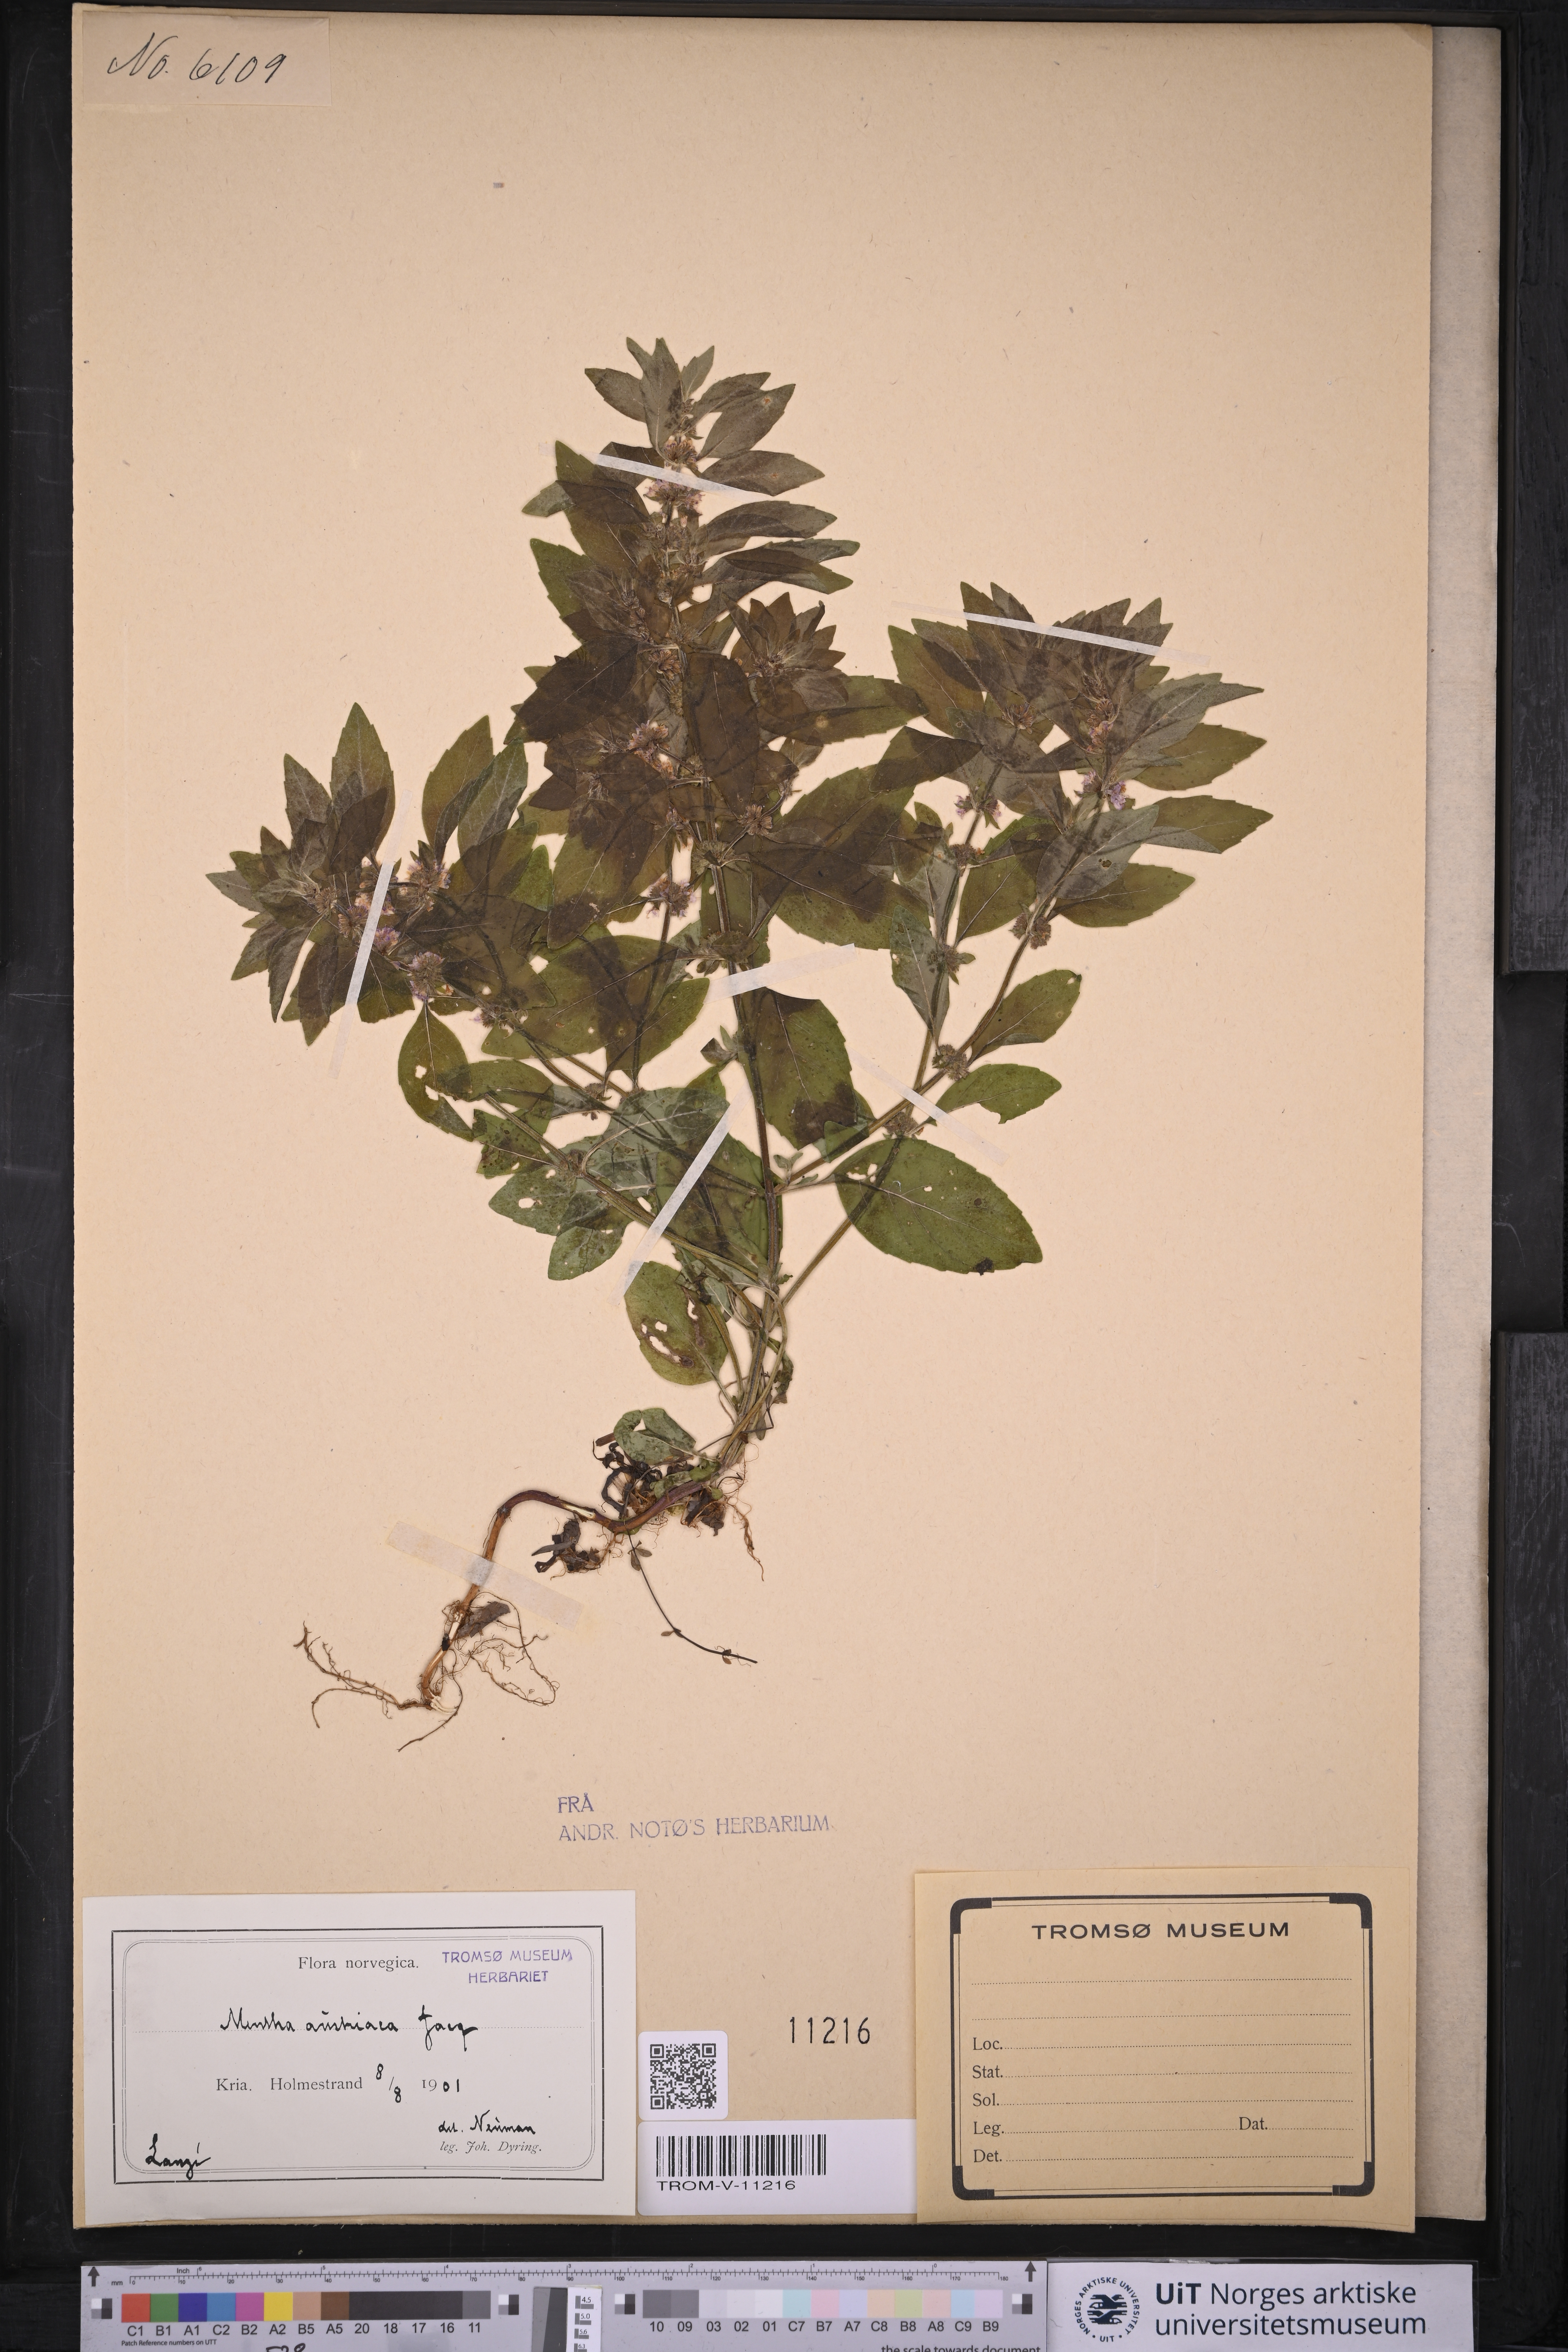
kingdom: Plantae
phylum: Tracheophyta
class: Magnoliopsida
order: Lamiales
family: Lamiaceae
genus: Mentha
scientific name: Mentha arvensis
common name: Corn mint
